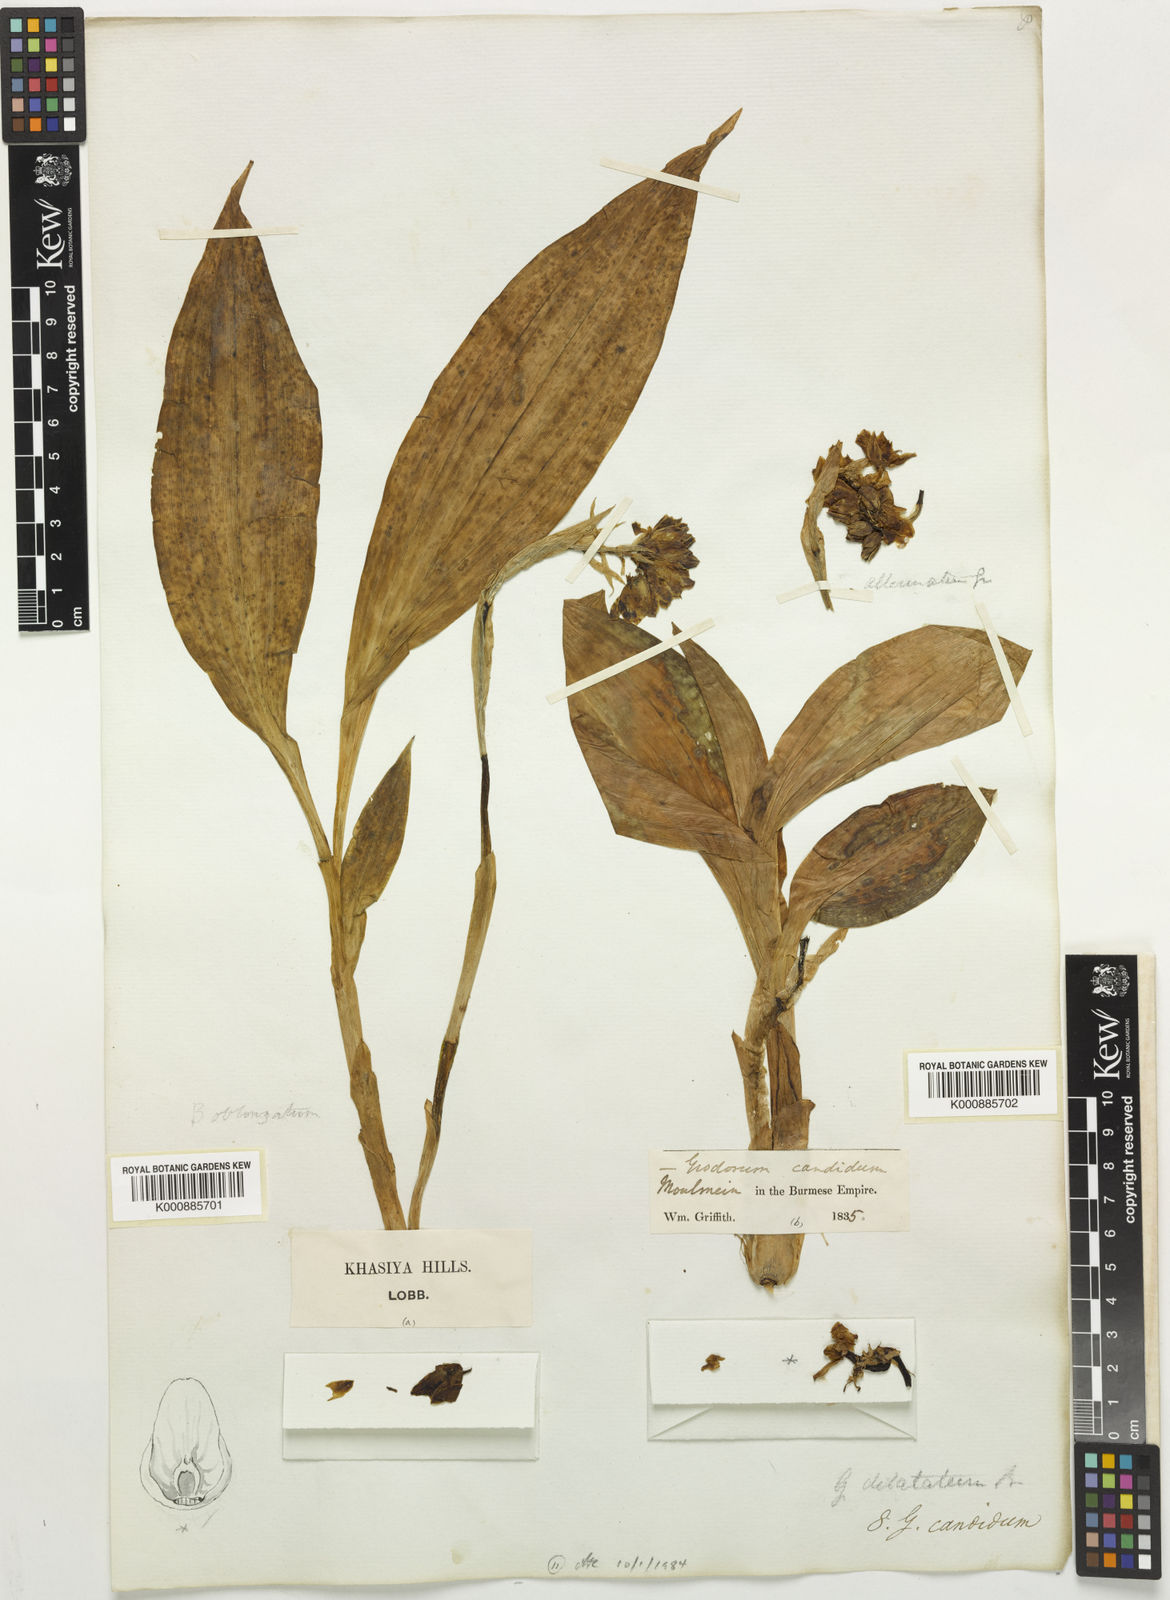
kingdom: Plantae
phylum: Tracheophyta
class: Liliopsida
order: Asparagales
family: Orchidaceae
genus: Geodorum
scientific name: Geodorum
